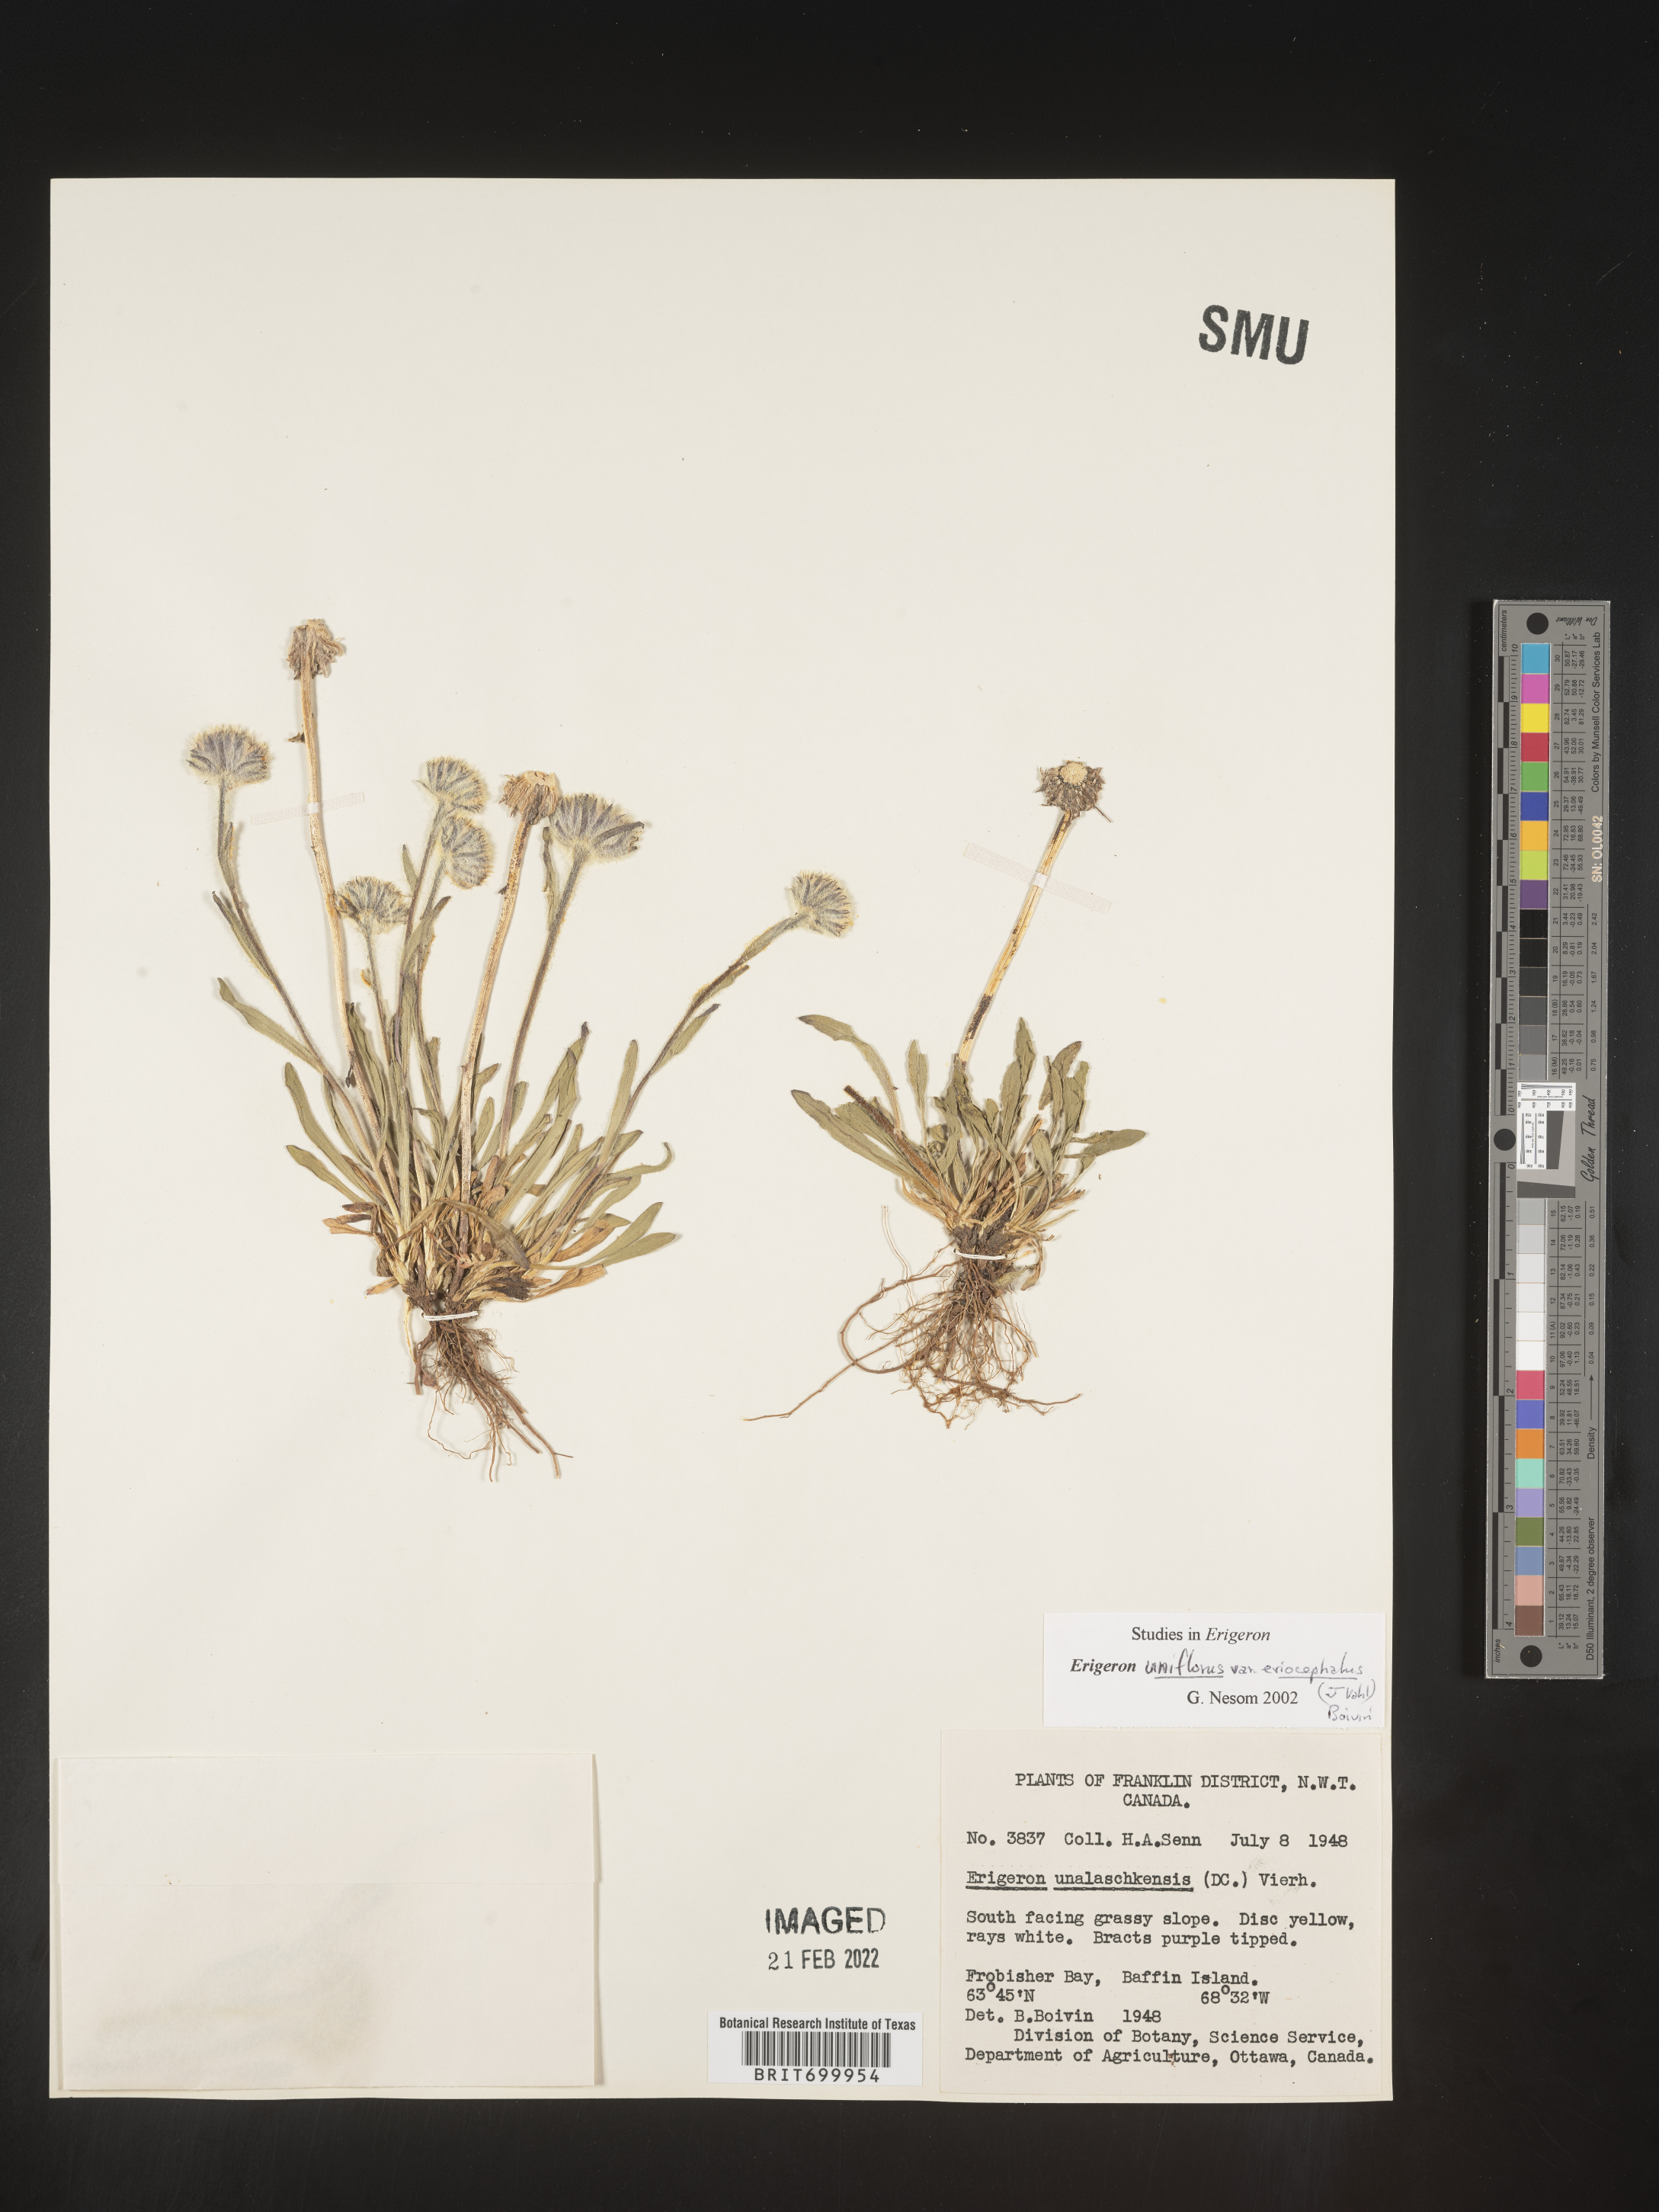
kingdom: Plantae
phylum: Tracheophyta
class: Magnoliopsida
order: Asterales
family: Asteraceae
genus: Erigeron
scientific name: Erigeron pulchellus
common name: Hairy fleabane
